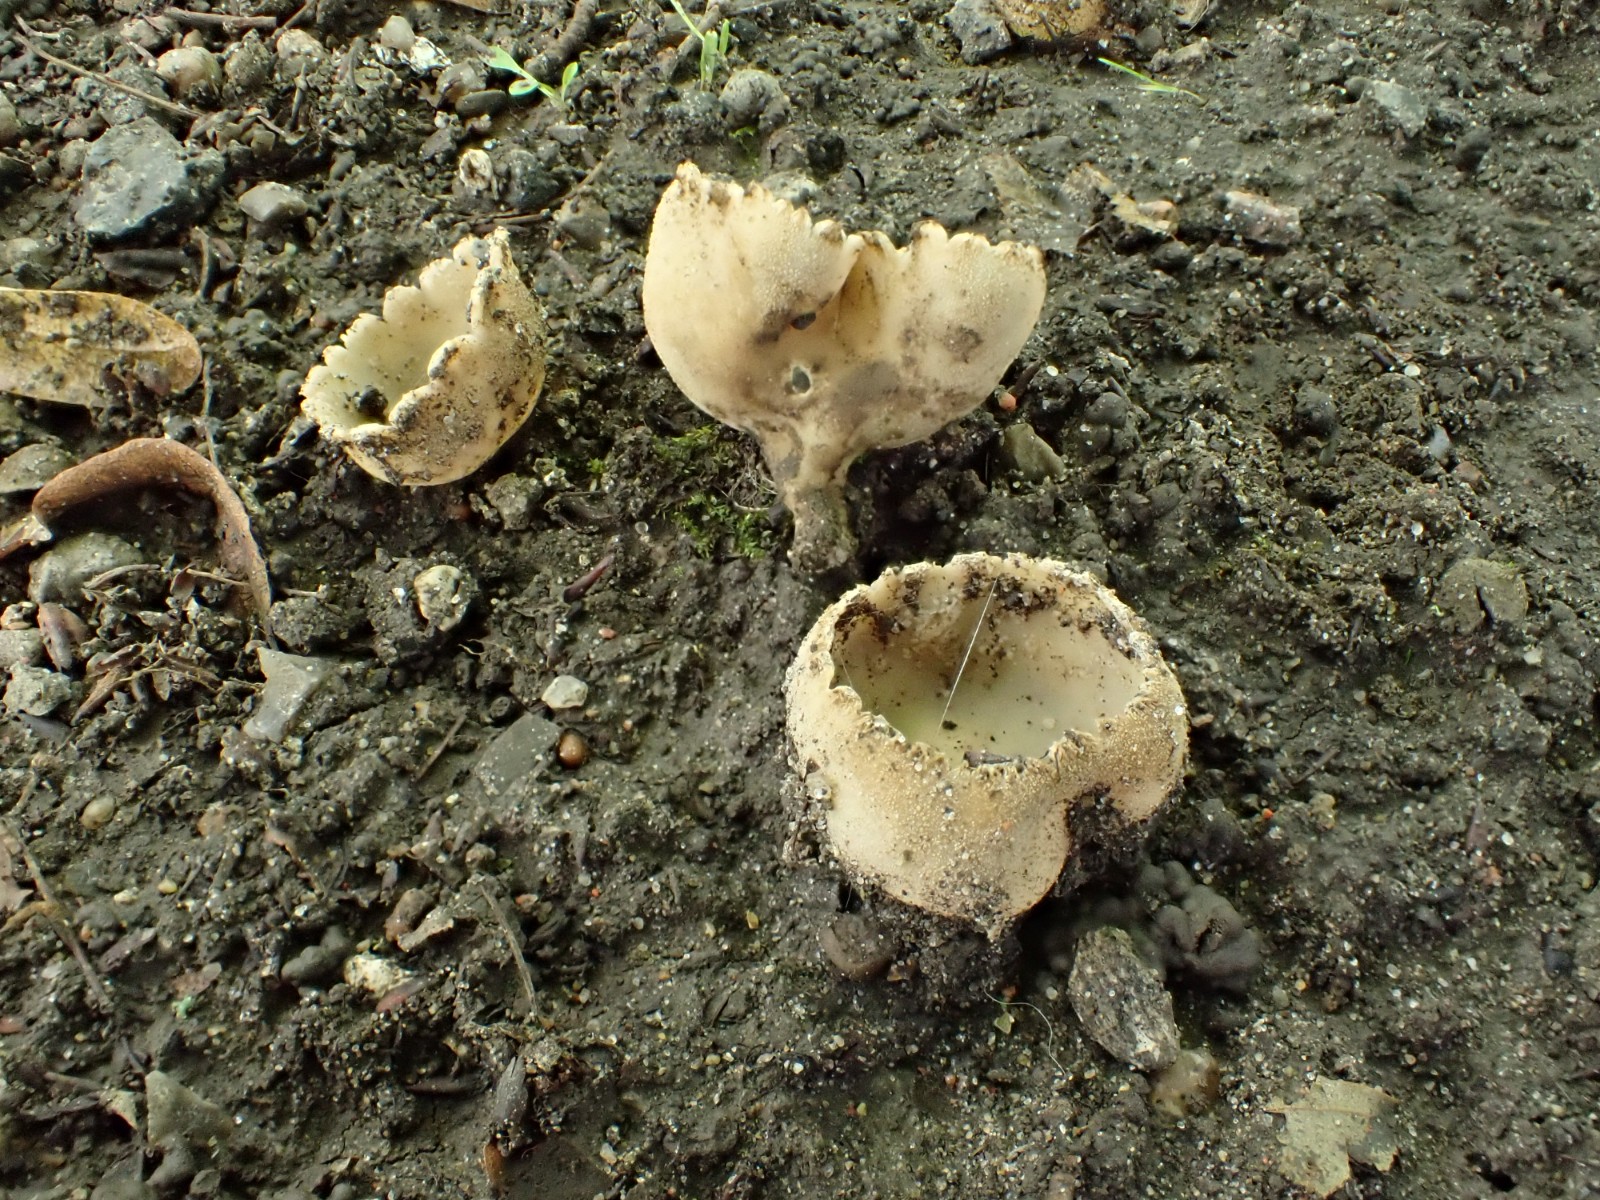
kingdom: Fungi
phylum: Ascomycota
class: Pezizomycetes
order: Pezizales
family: Pyronemataceae
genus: Tarzetta
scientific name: Tarzetta cupularis
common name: gulbrun pokalbæger
